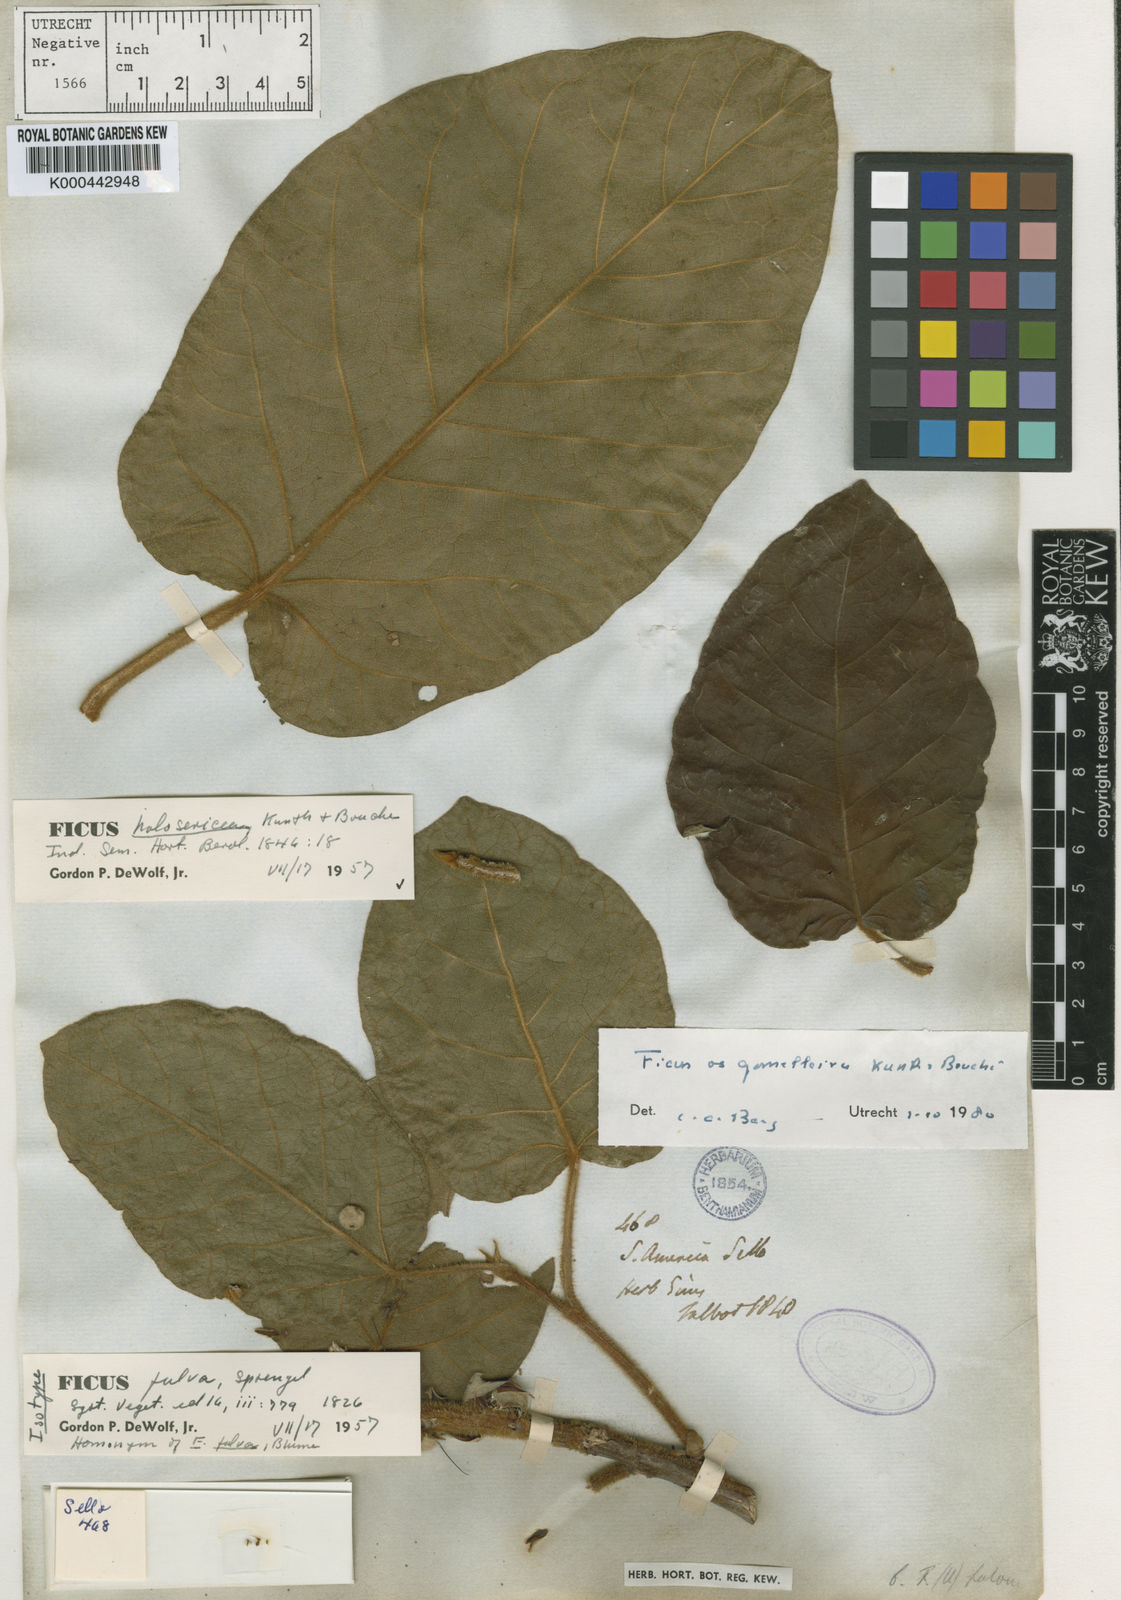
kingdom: Plantae
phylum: Tracheophyta
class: Magnoliopsida
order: Rosales
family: Moraceae
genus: Ficus
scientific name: Ficus holosericea
